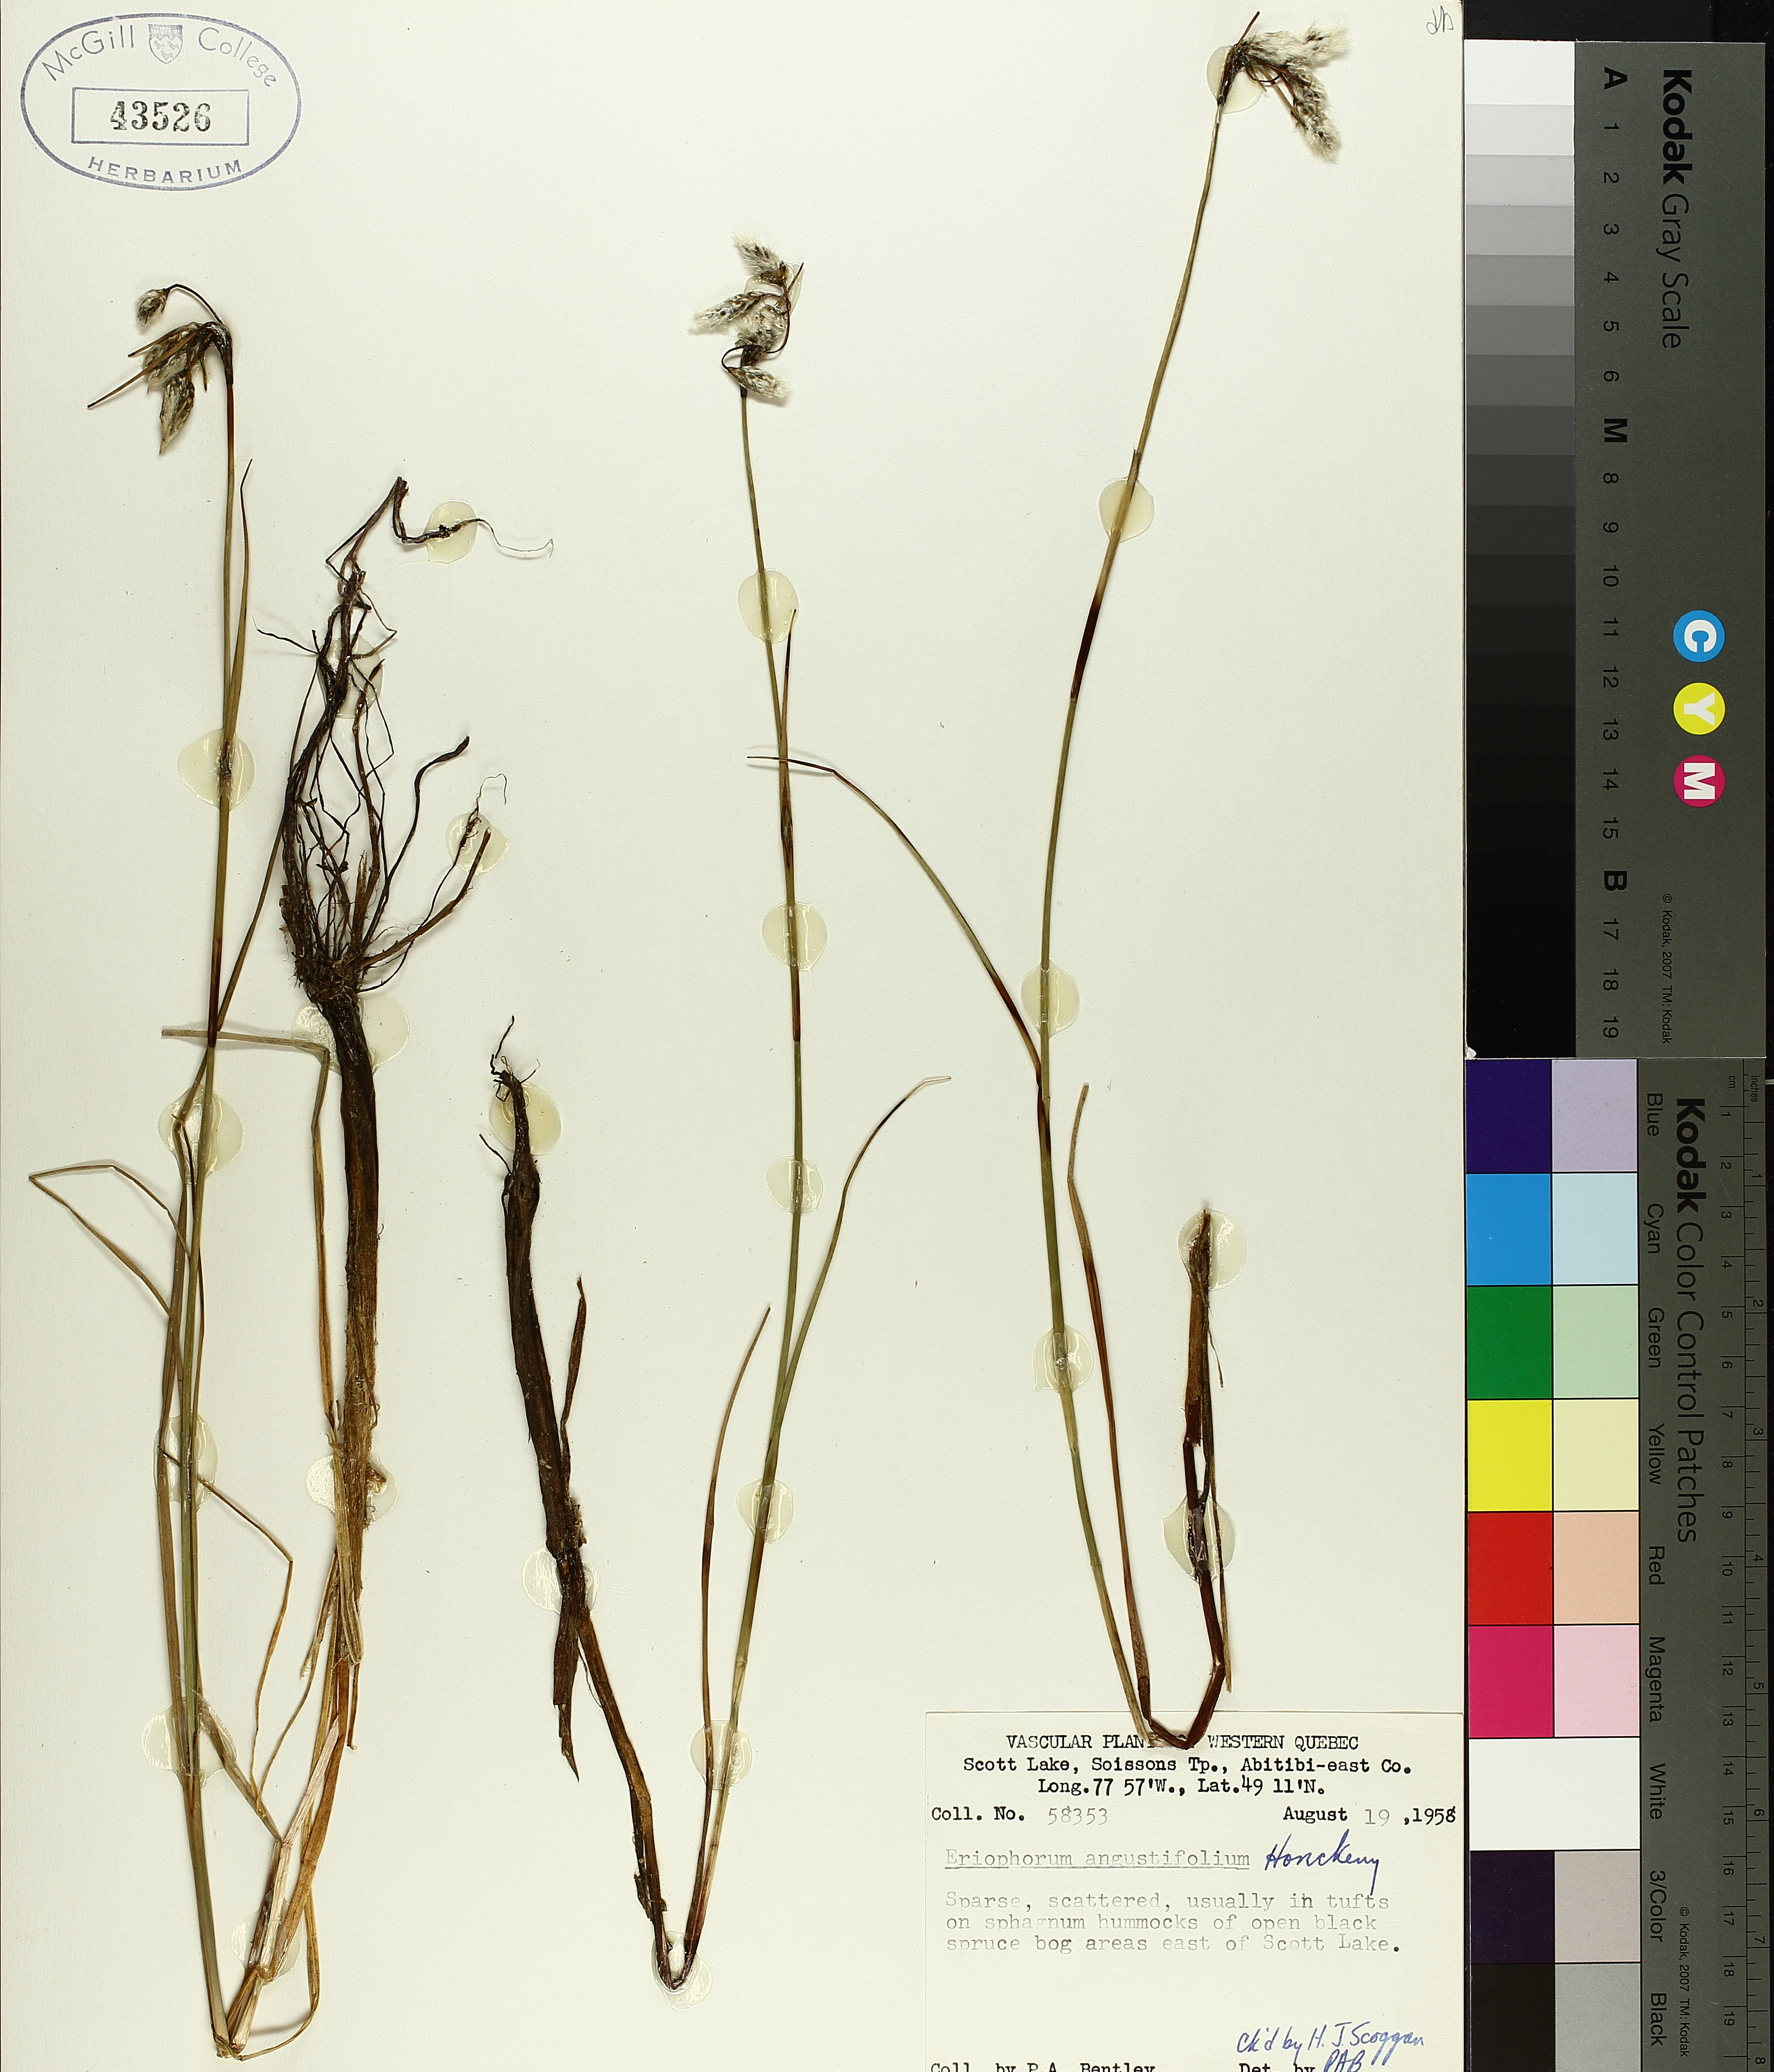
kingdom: Plantae
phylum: Tracheophyta
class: Liliopsida
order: Poales
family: Cyperaceae
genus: Eriophorum
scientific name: Eriophorum triste
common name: Tall cottongrass
